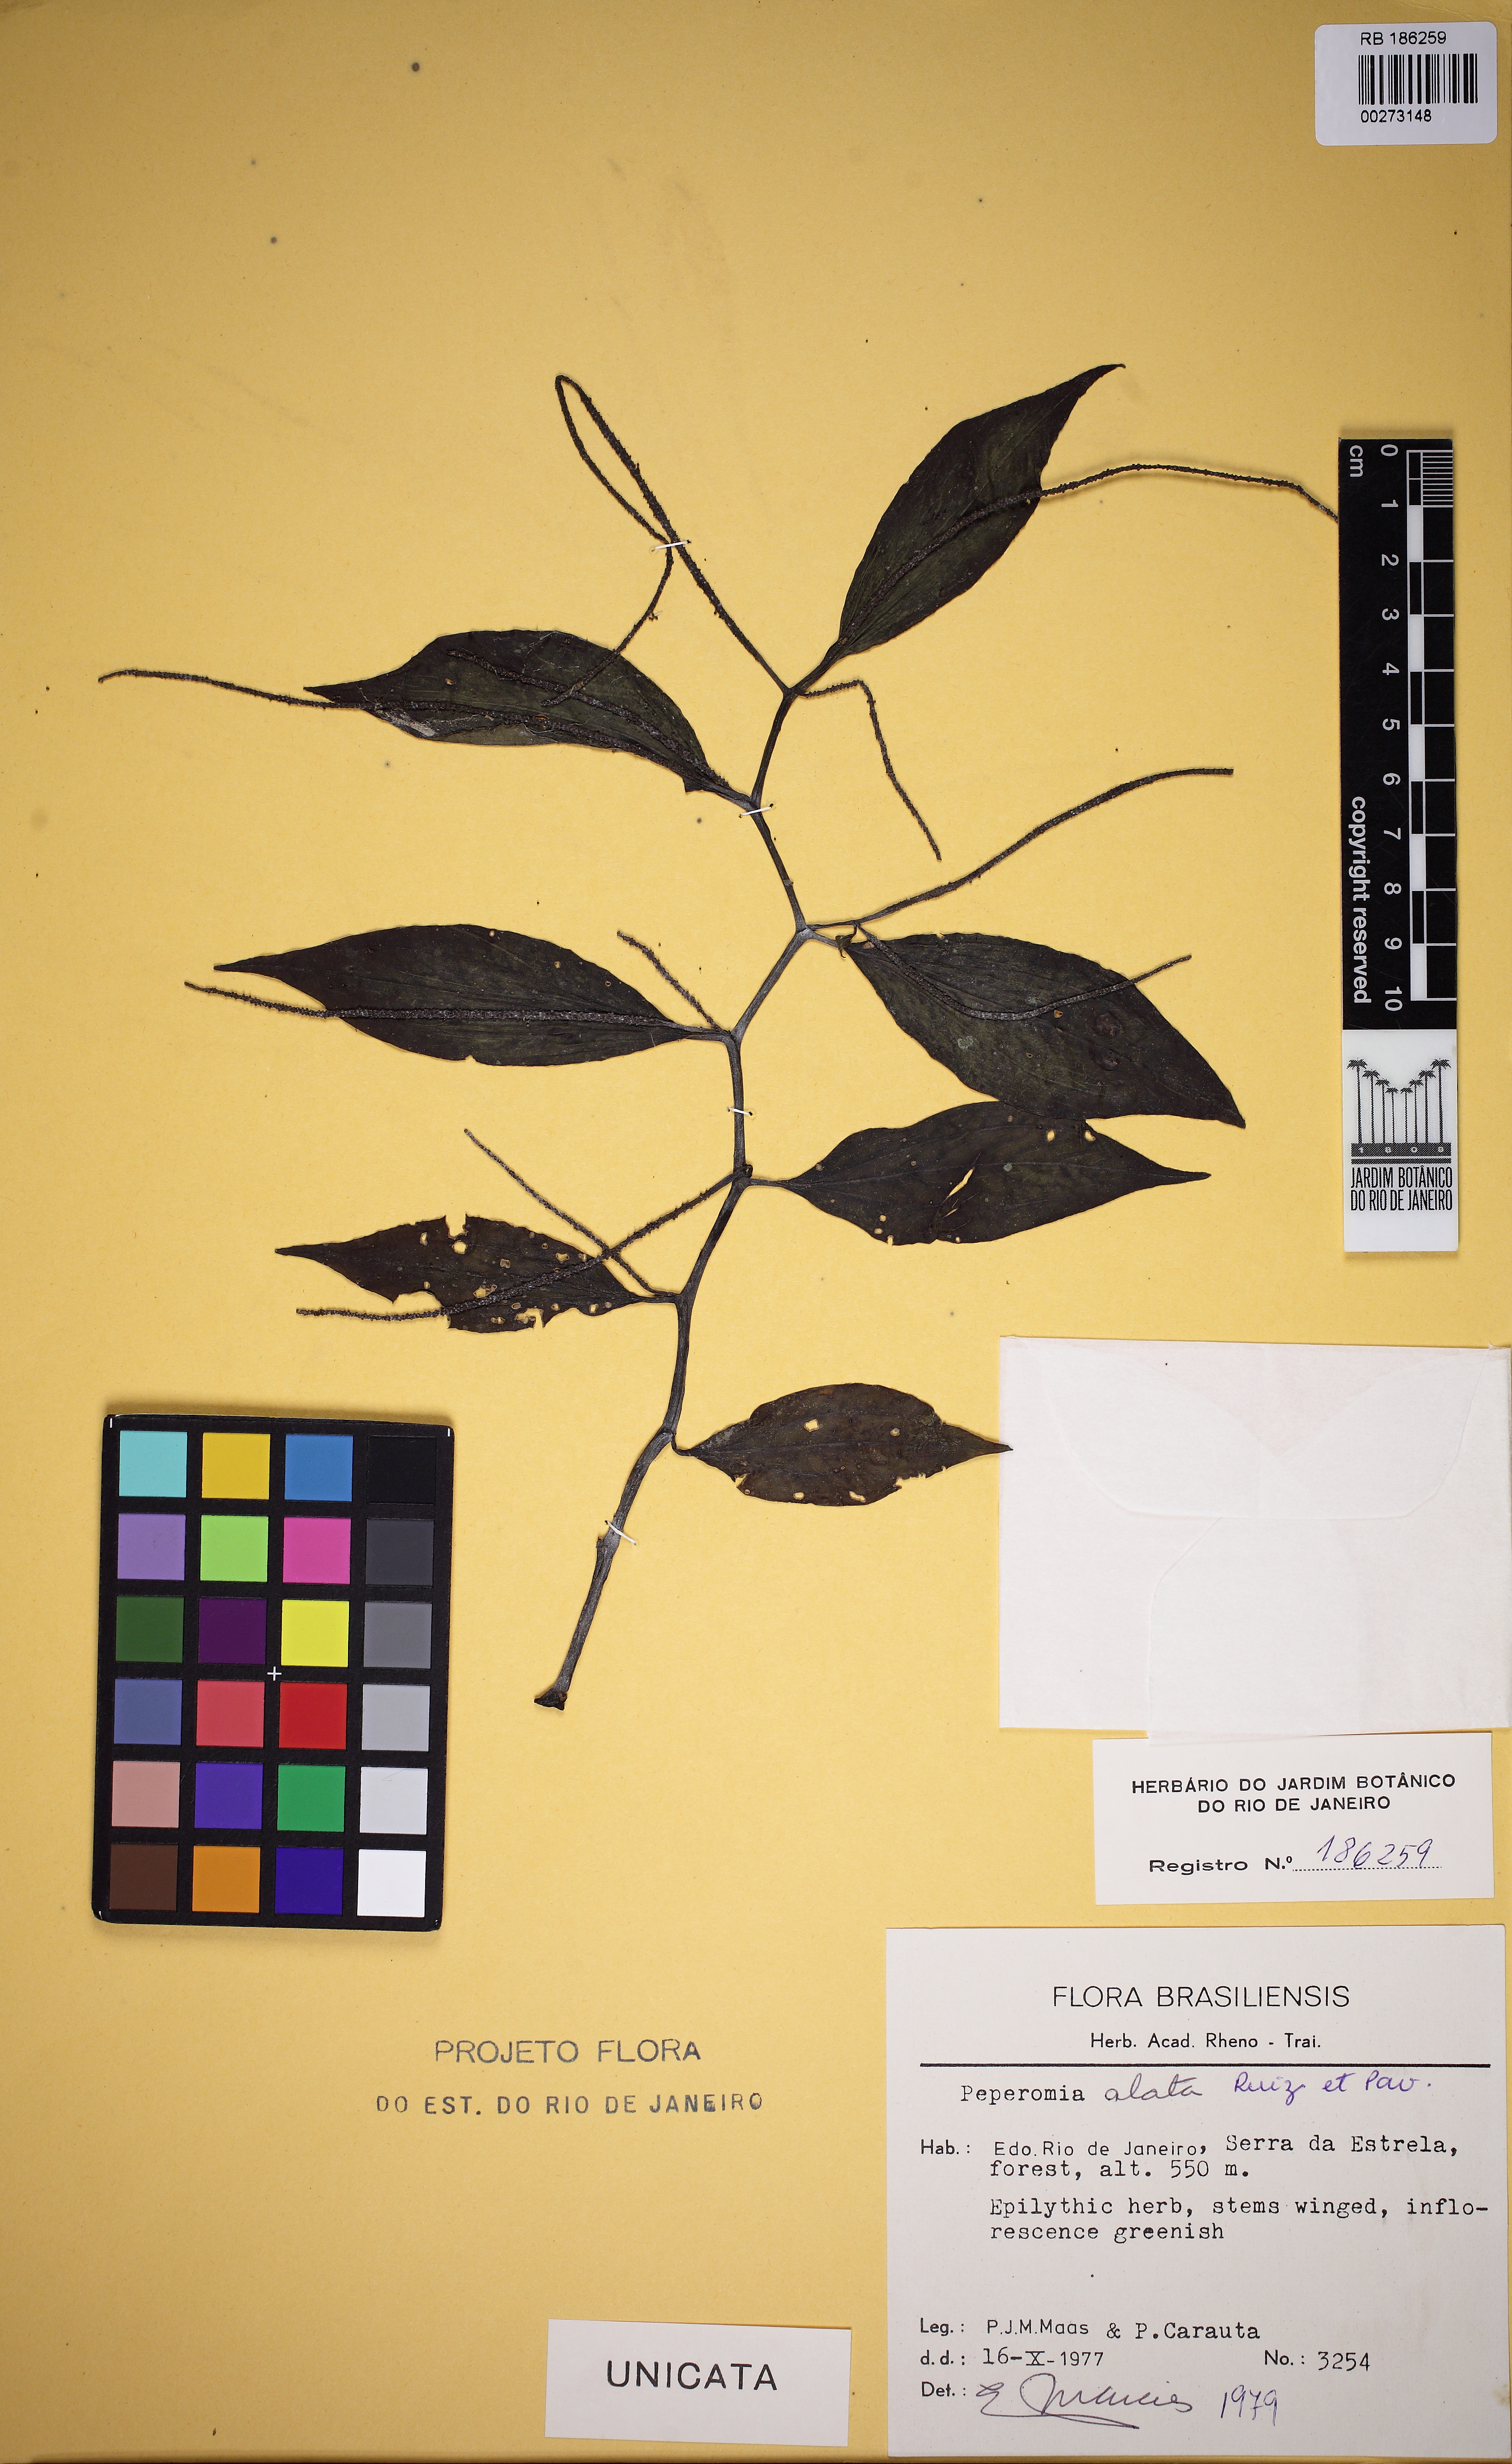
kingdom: Plantae
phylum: Tracheophyta
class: Magnoliopsida
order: Piperales
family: Piperaceae
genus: Peperomia
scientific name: Peperomia alata
